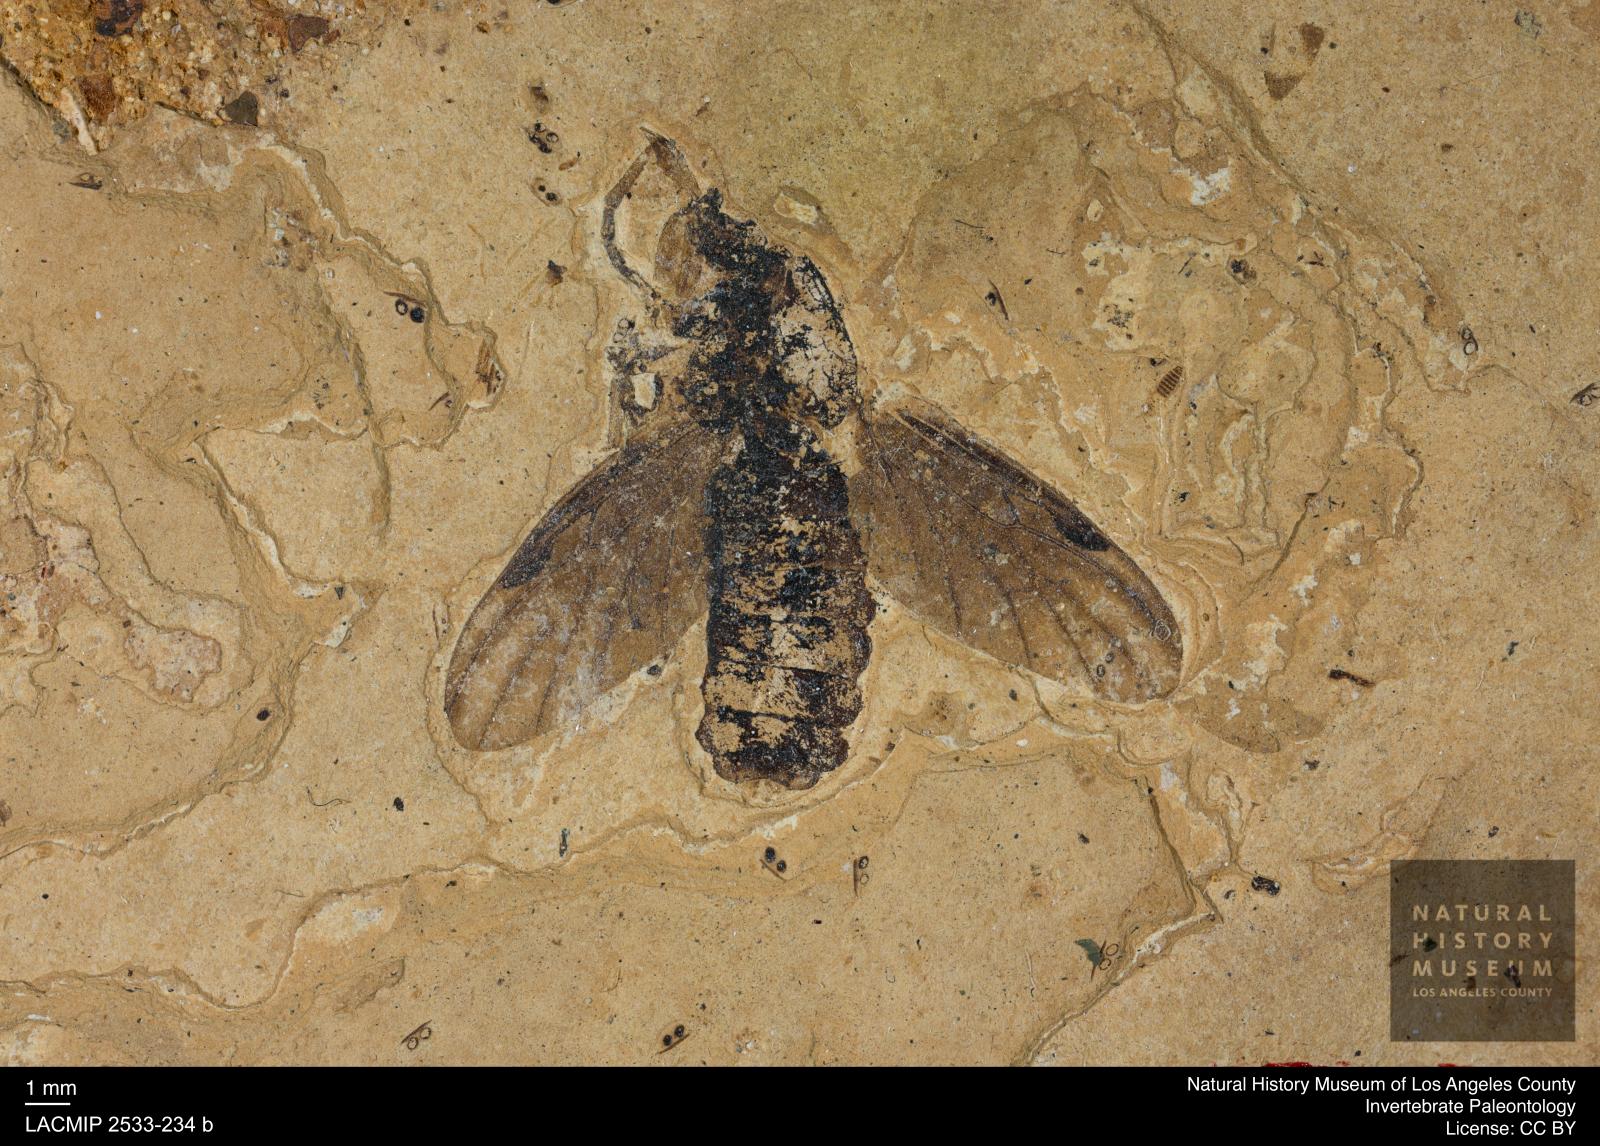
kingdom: Animalia
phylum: Arthropoda
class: Insecta
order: Diptera
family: Bibionidae
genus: Bibio
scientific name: Bibio germari
